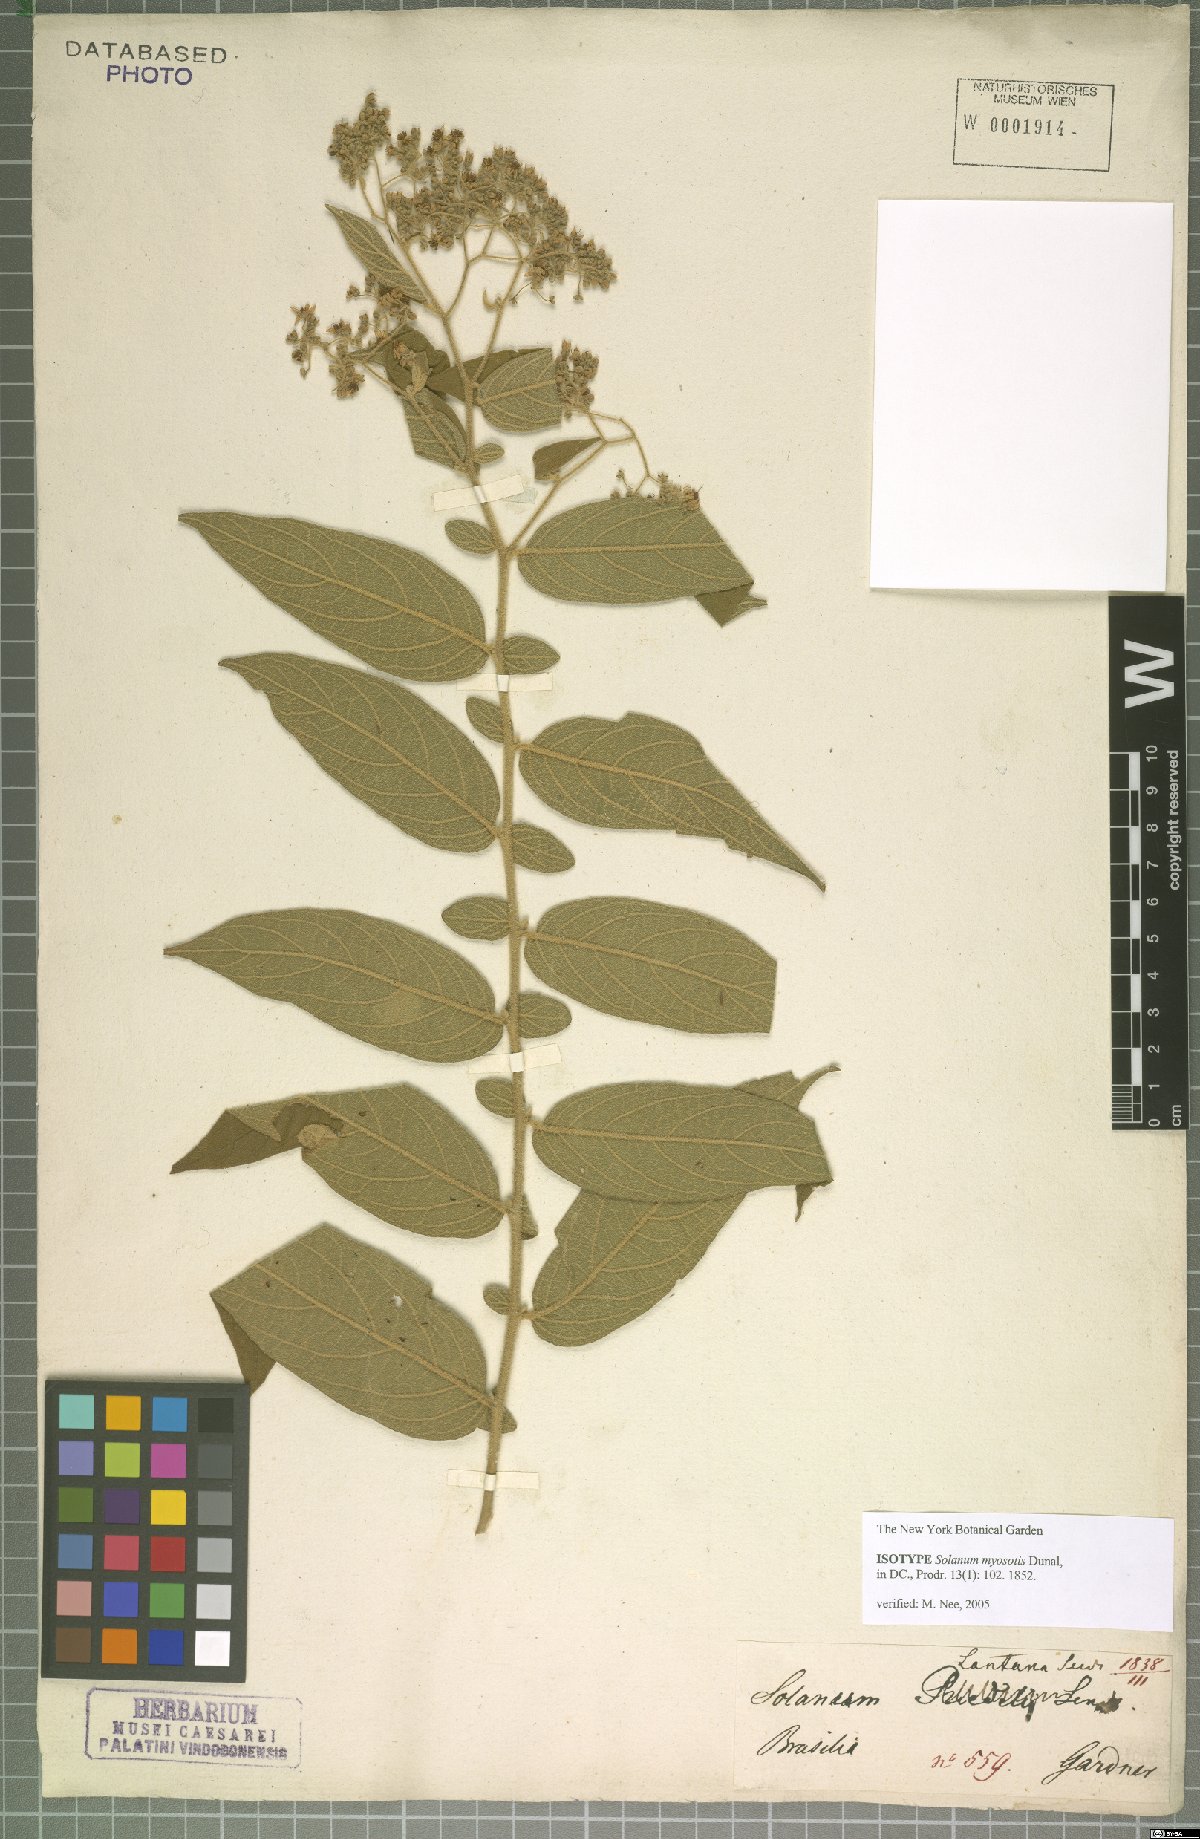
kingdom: Plantae
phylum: Tracheophyta
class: Magnoliopsida
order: Solanales
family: Solanaceae
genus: Solanum
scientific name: Solanum lantana
